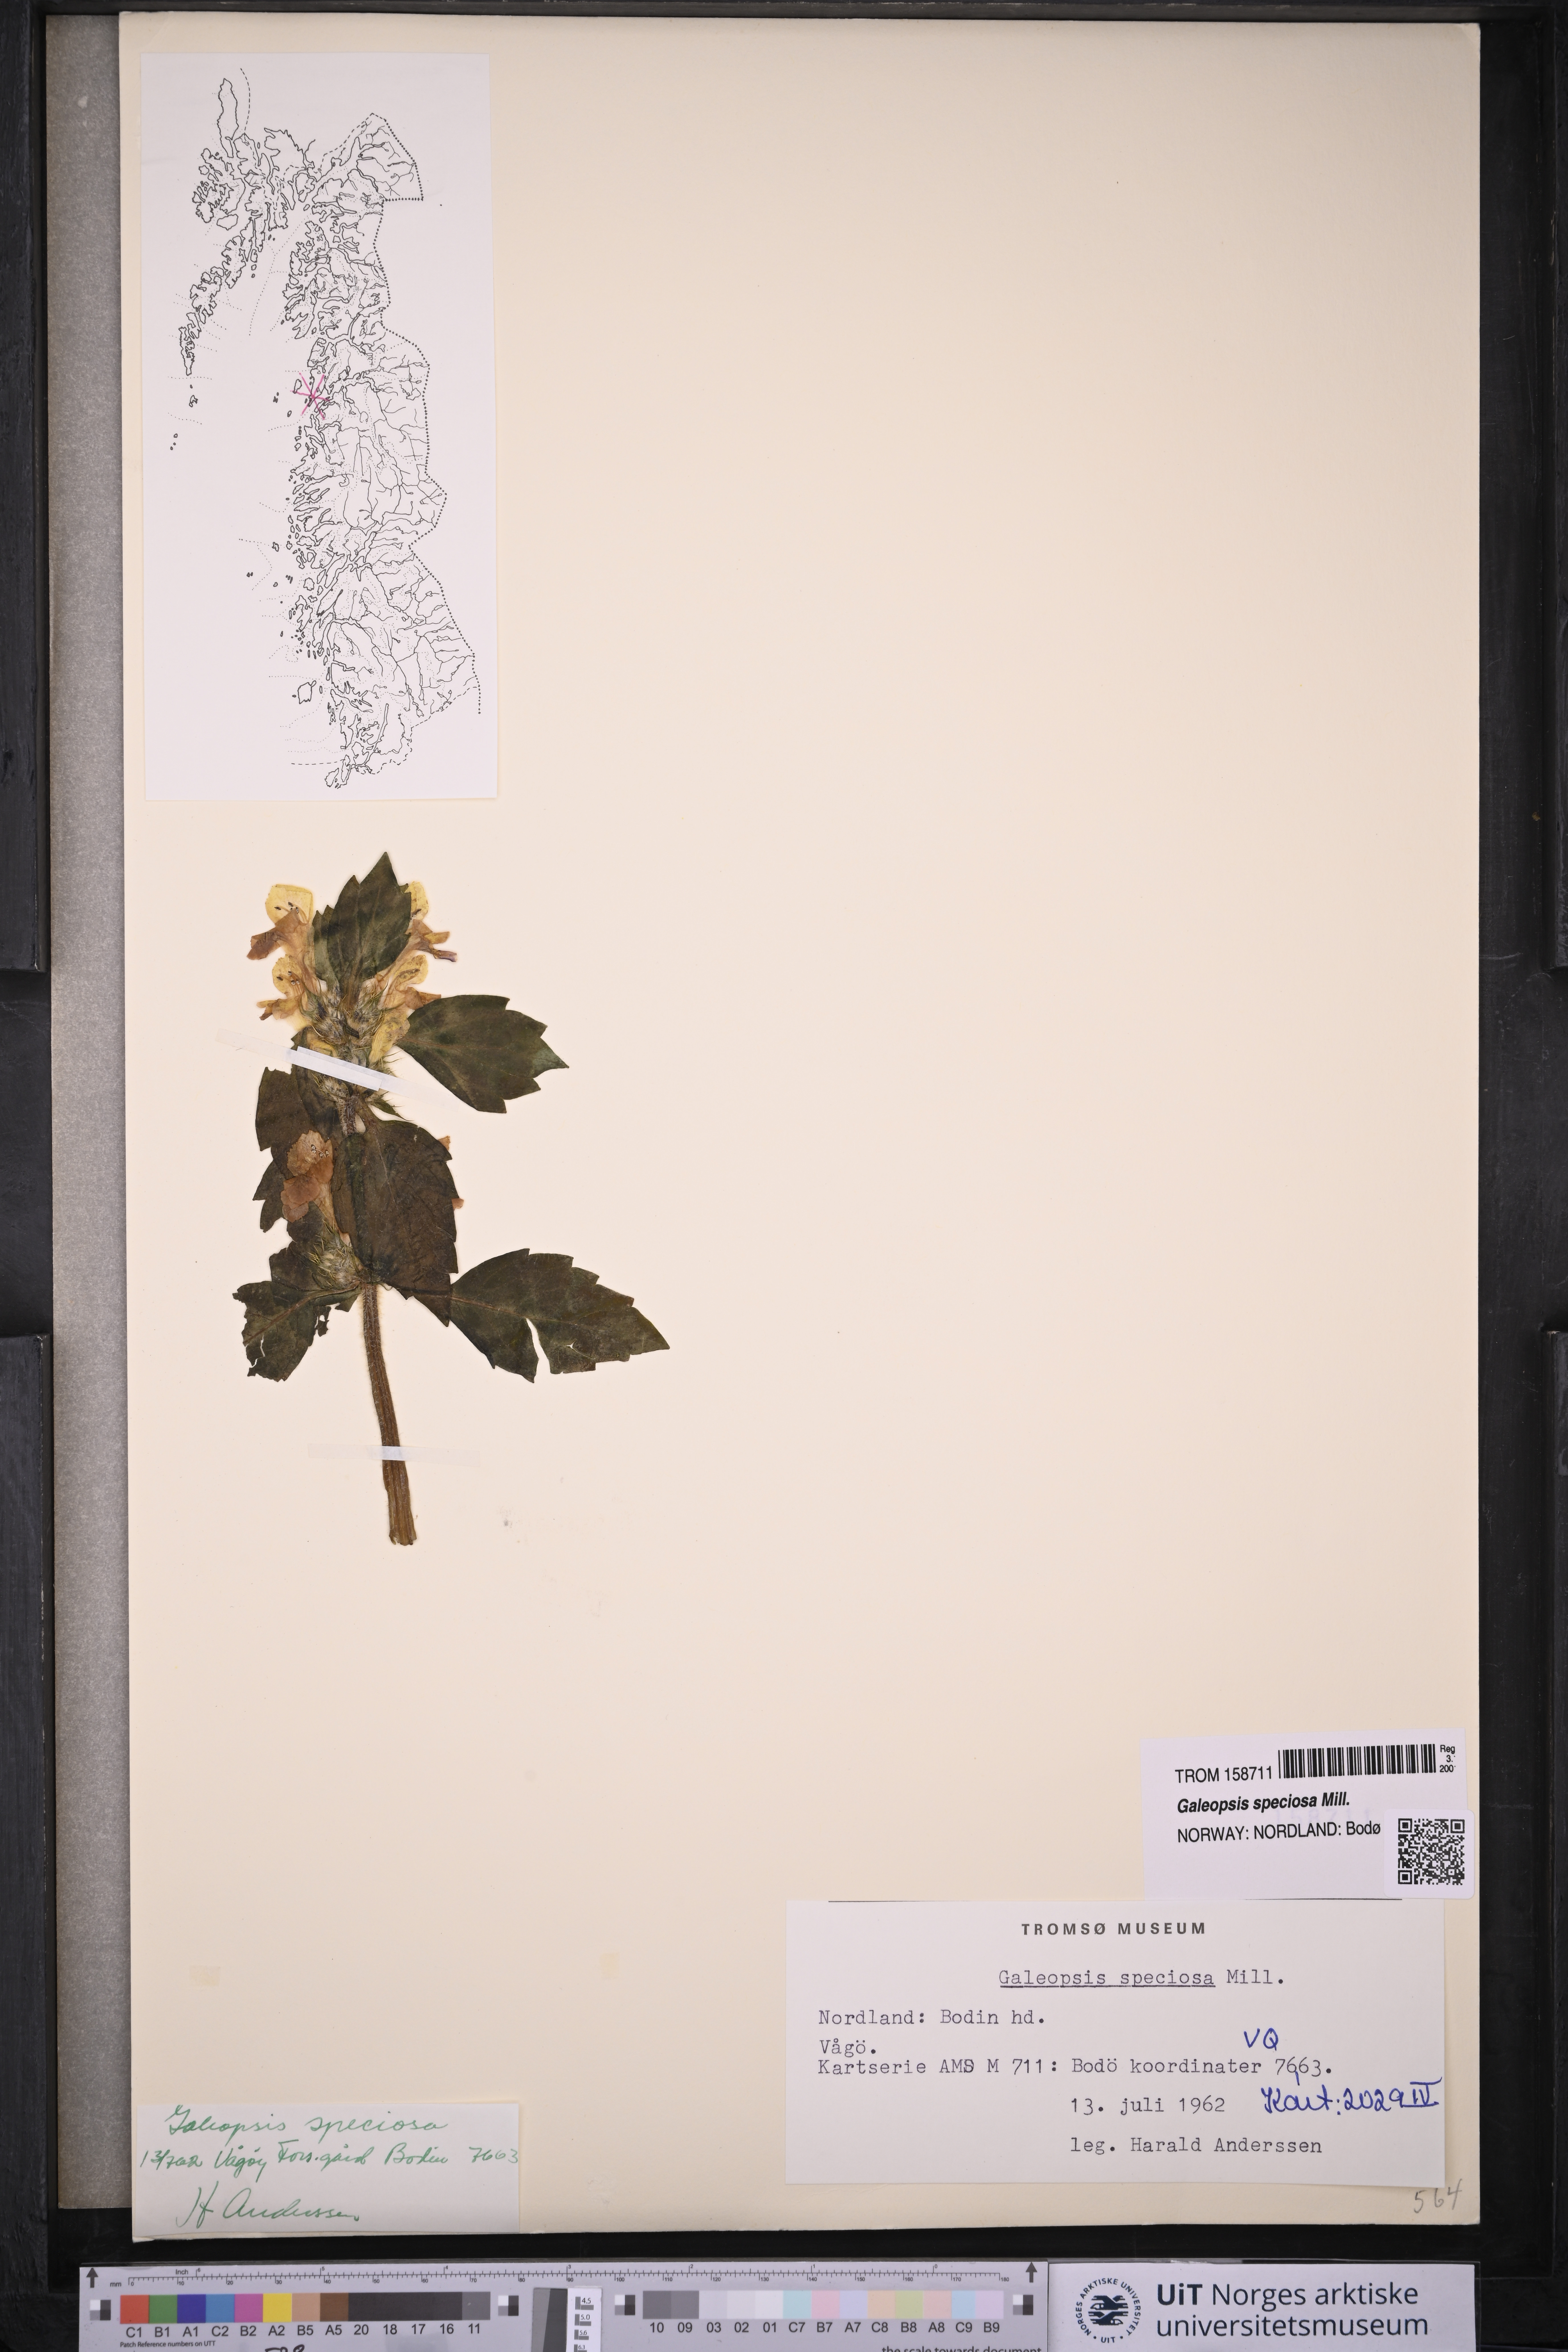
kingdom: Plantae
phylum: Tracheophyta
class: Magnoliopsida
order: Lamiales
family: Lamiaceae
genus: Galeopsis
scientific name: Galeopsis speciosa
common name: Large-flowered hemp-nettle
